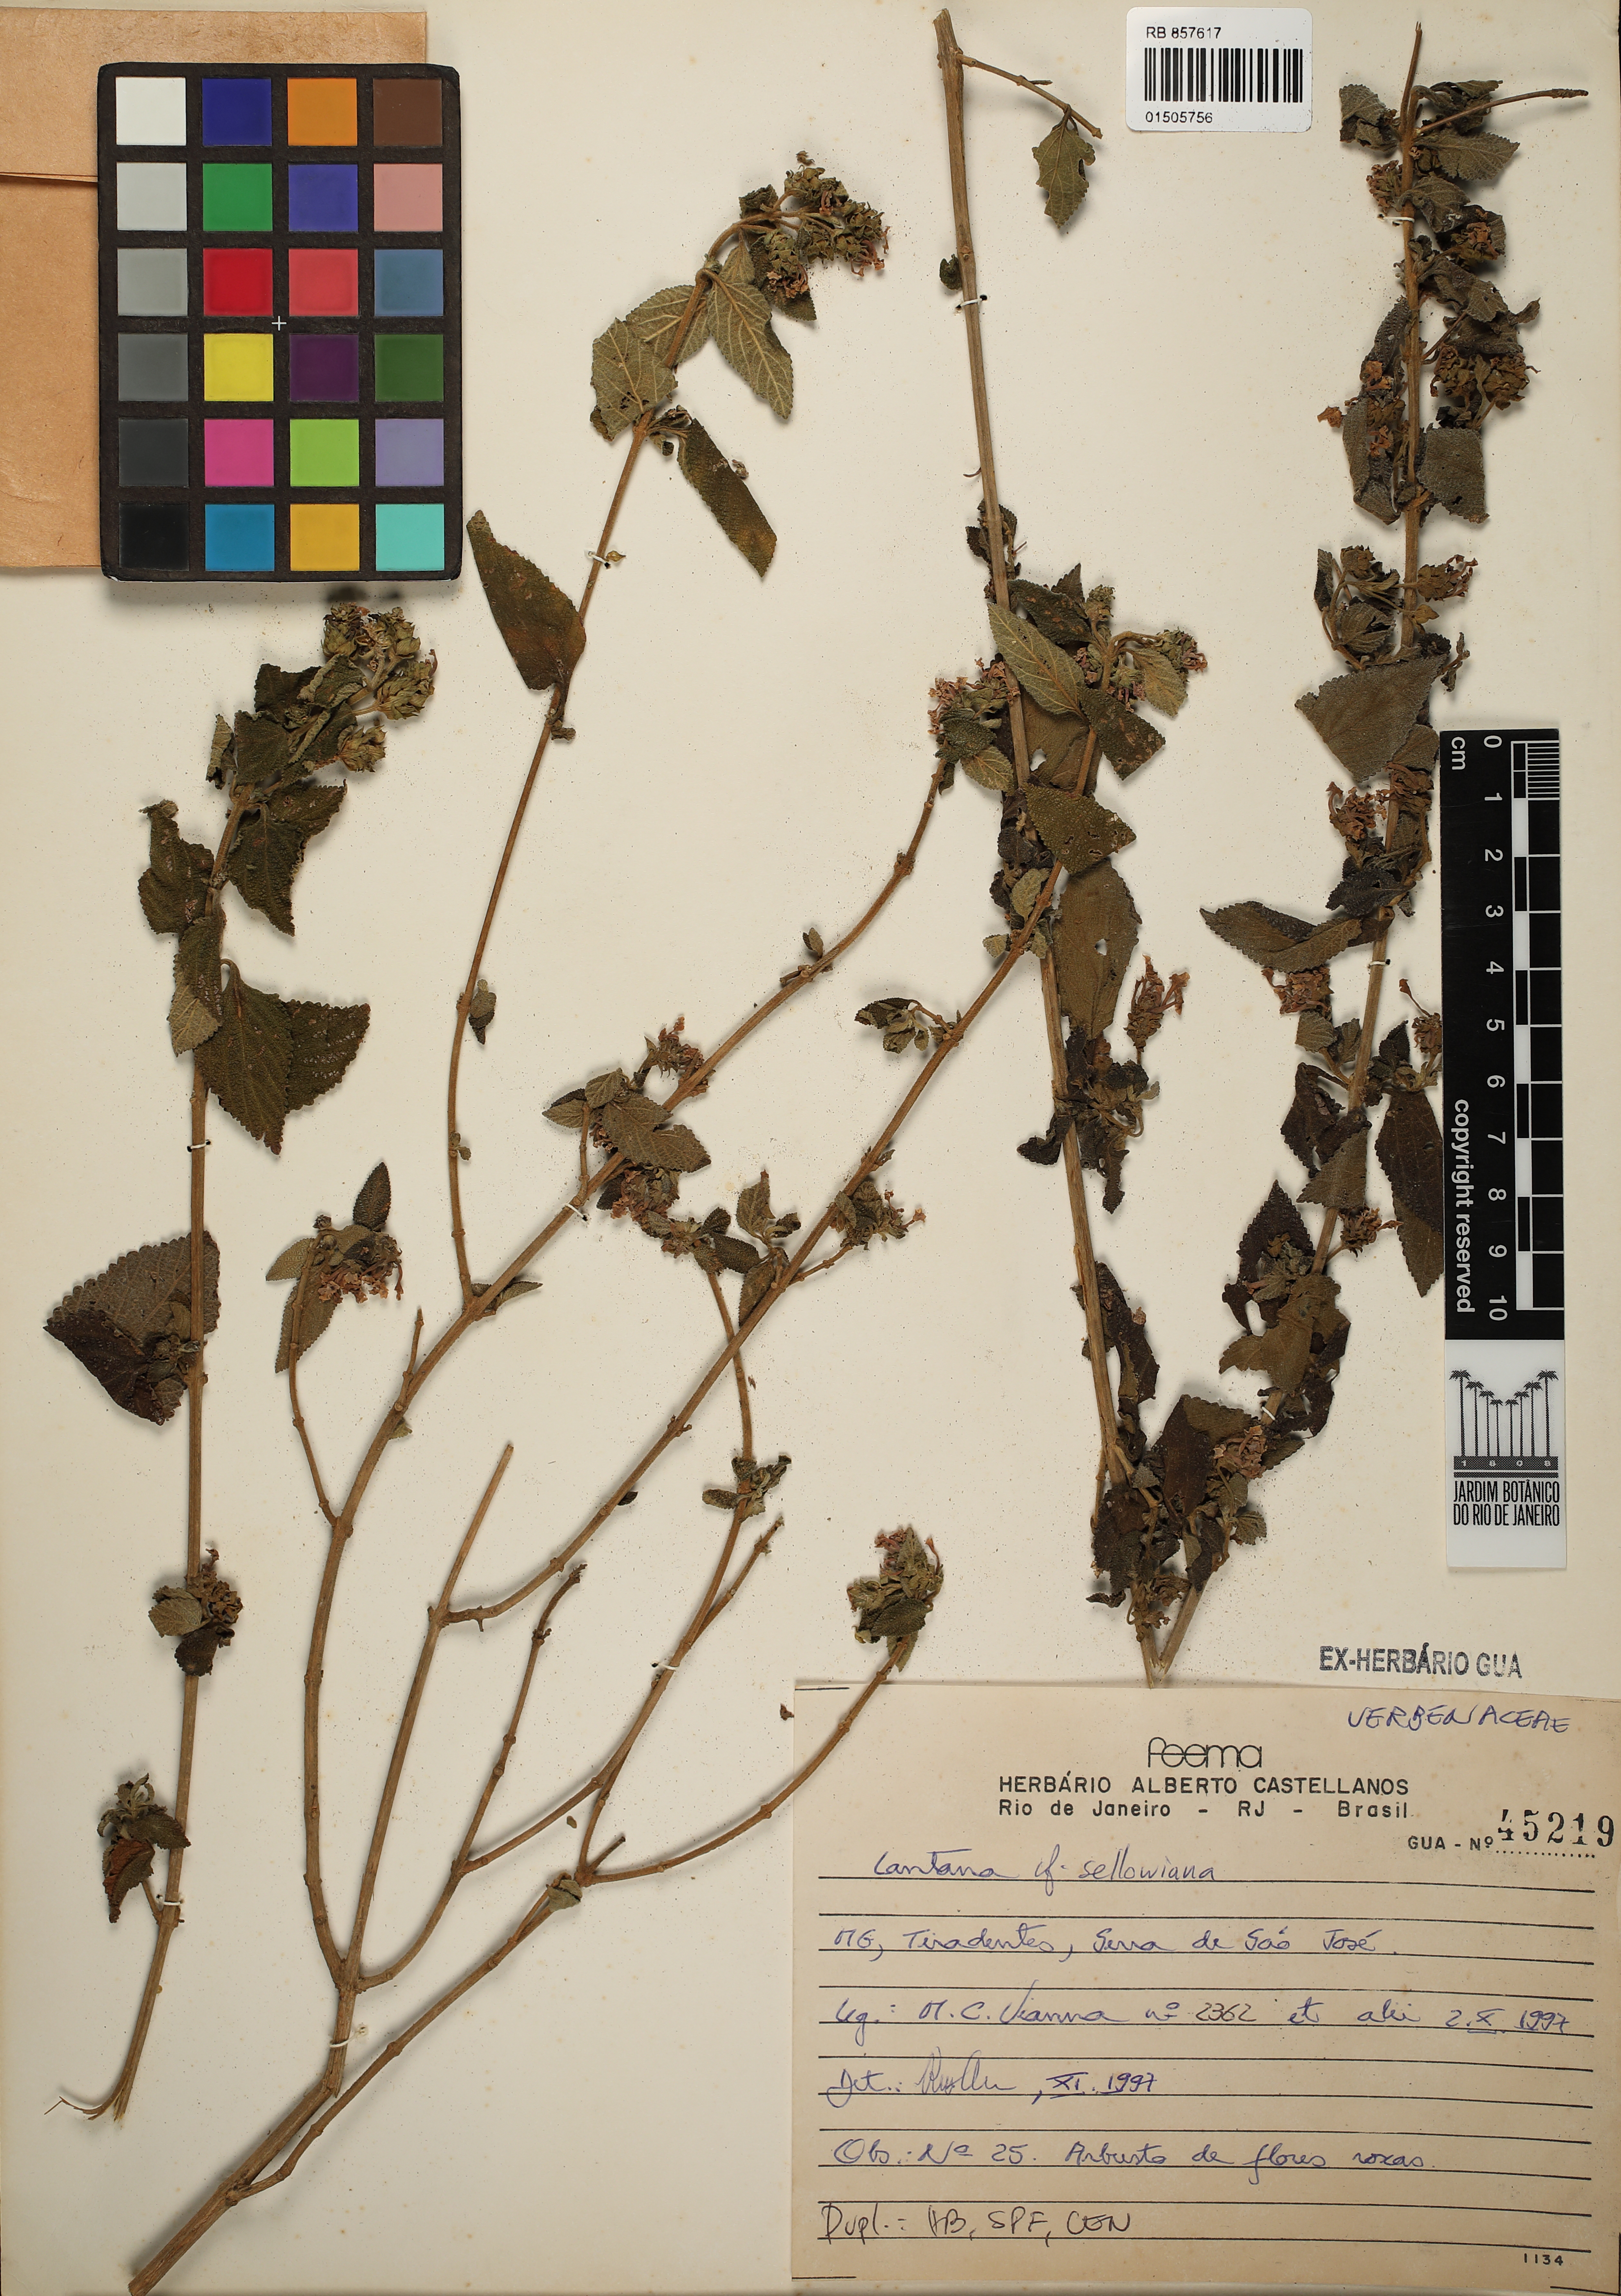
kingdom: Plantae
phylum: Tracheophyta
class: Magnoliopsida
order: Lamiales
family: Verbenaceae
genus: Lantana
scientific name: Lantana montevidensis
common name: Trailing shrubverbena
